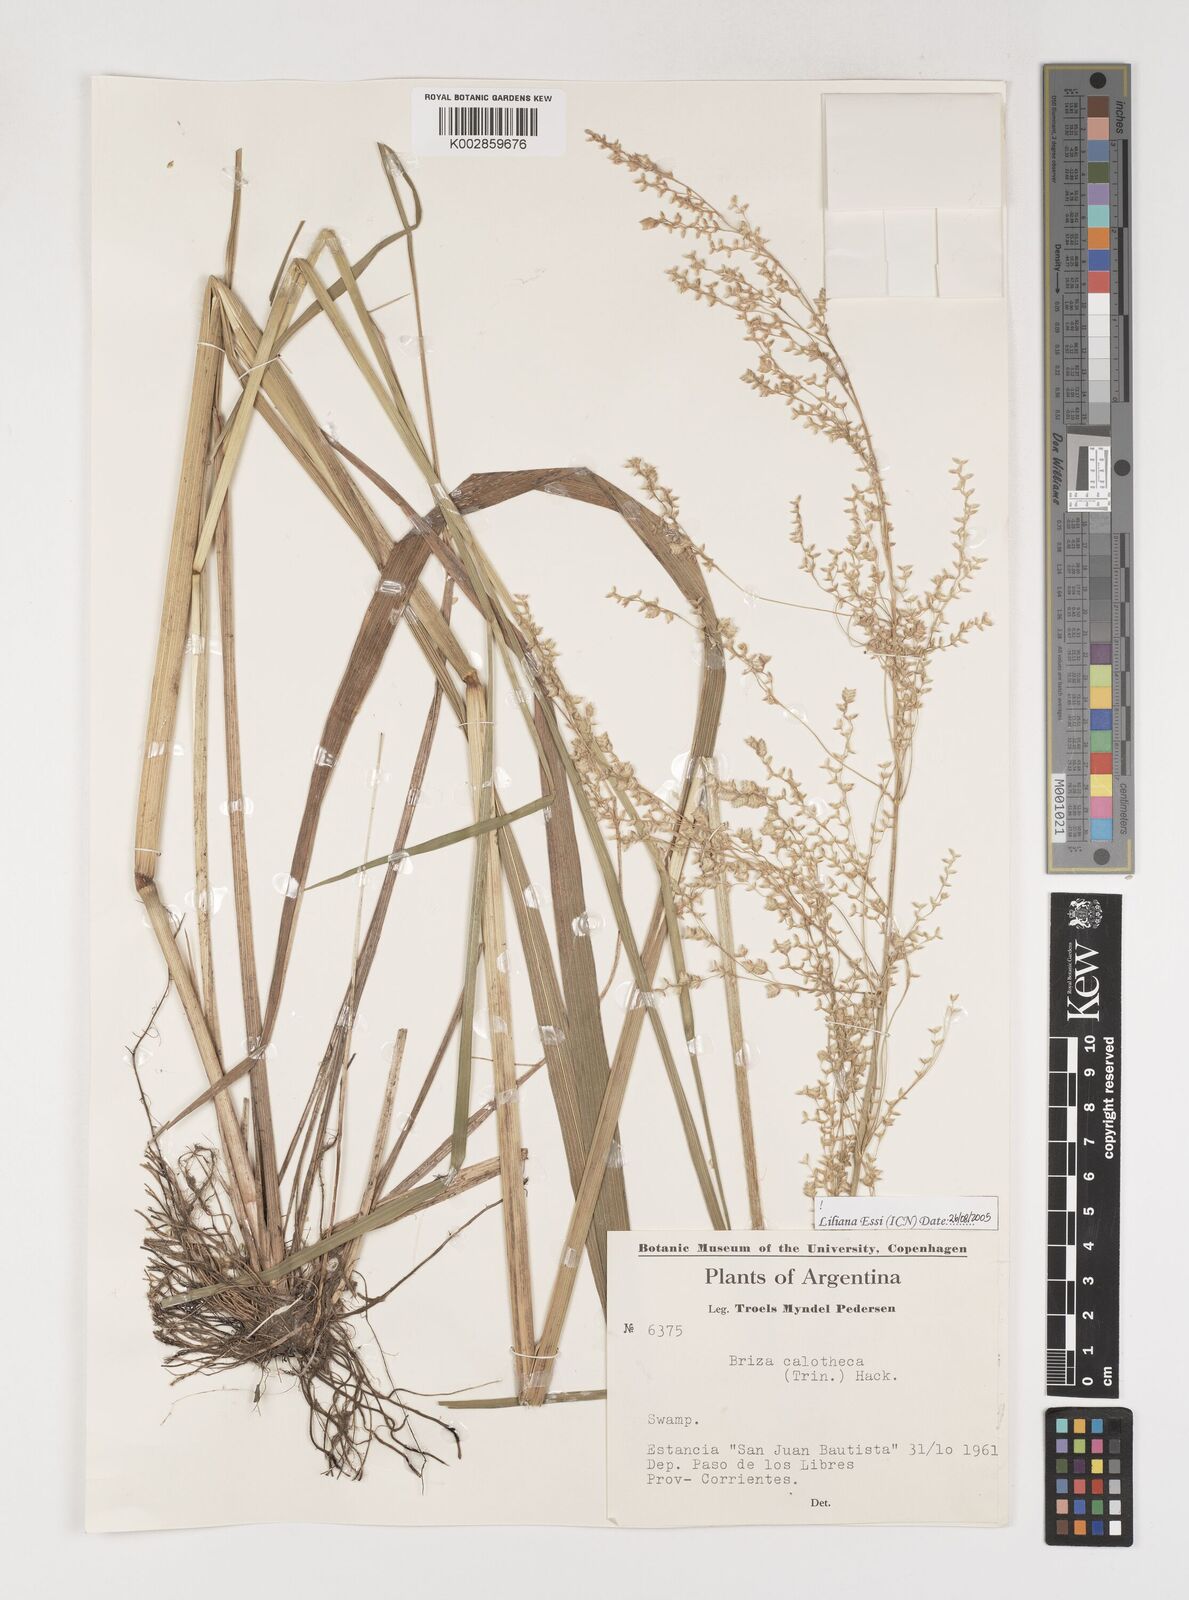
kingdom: Plantae
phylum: Tracheophyta
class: Liliopsida
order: Poales
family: Poaceae
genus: Poidium
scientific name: Poidium calotheca
